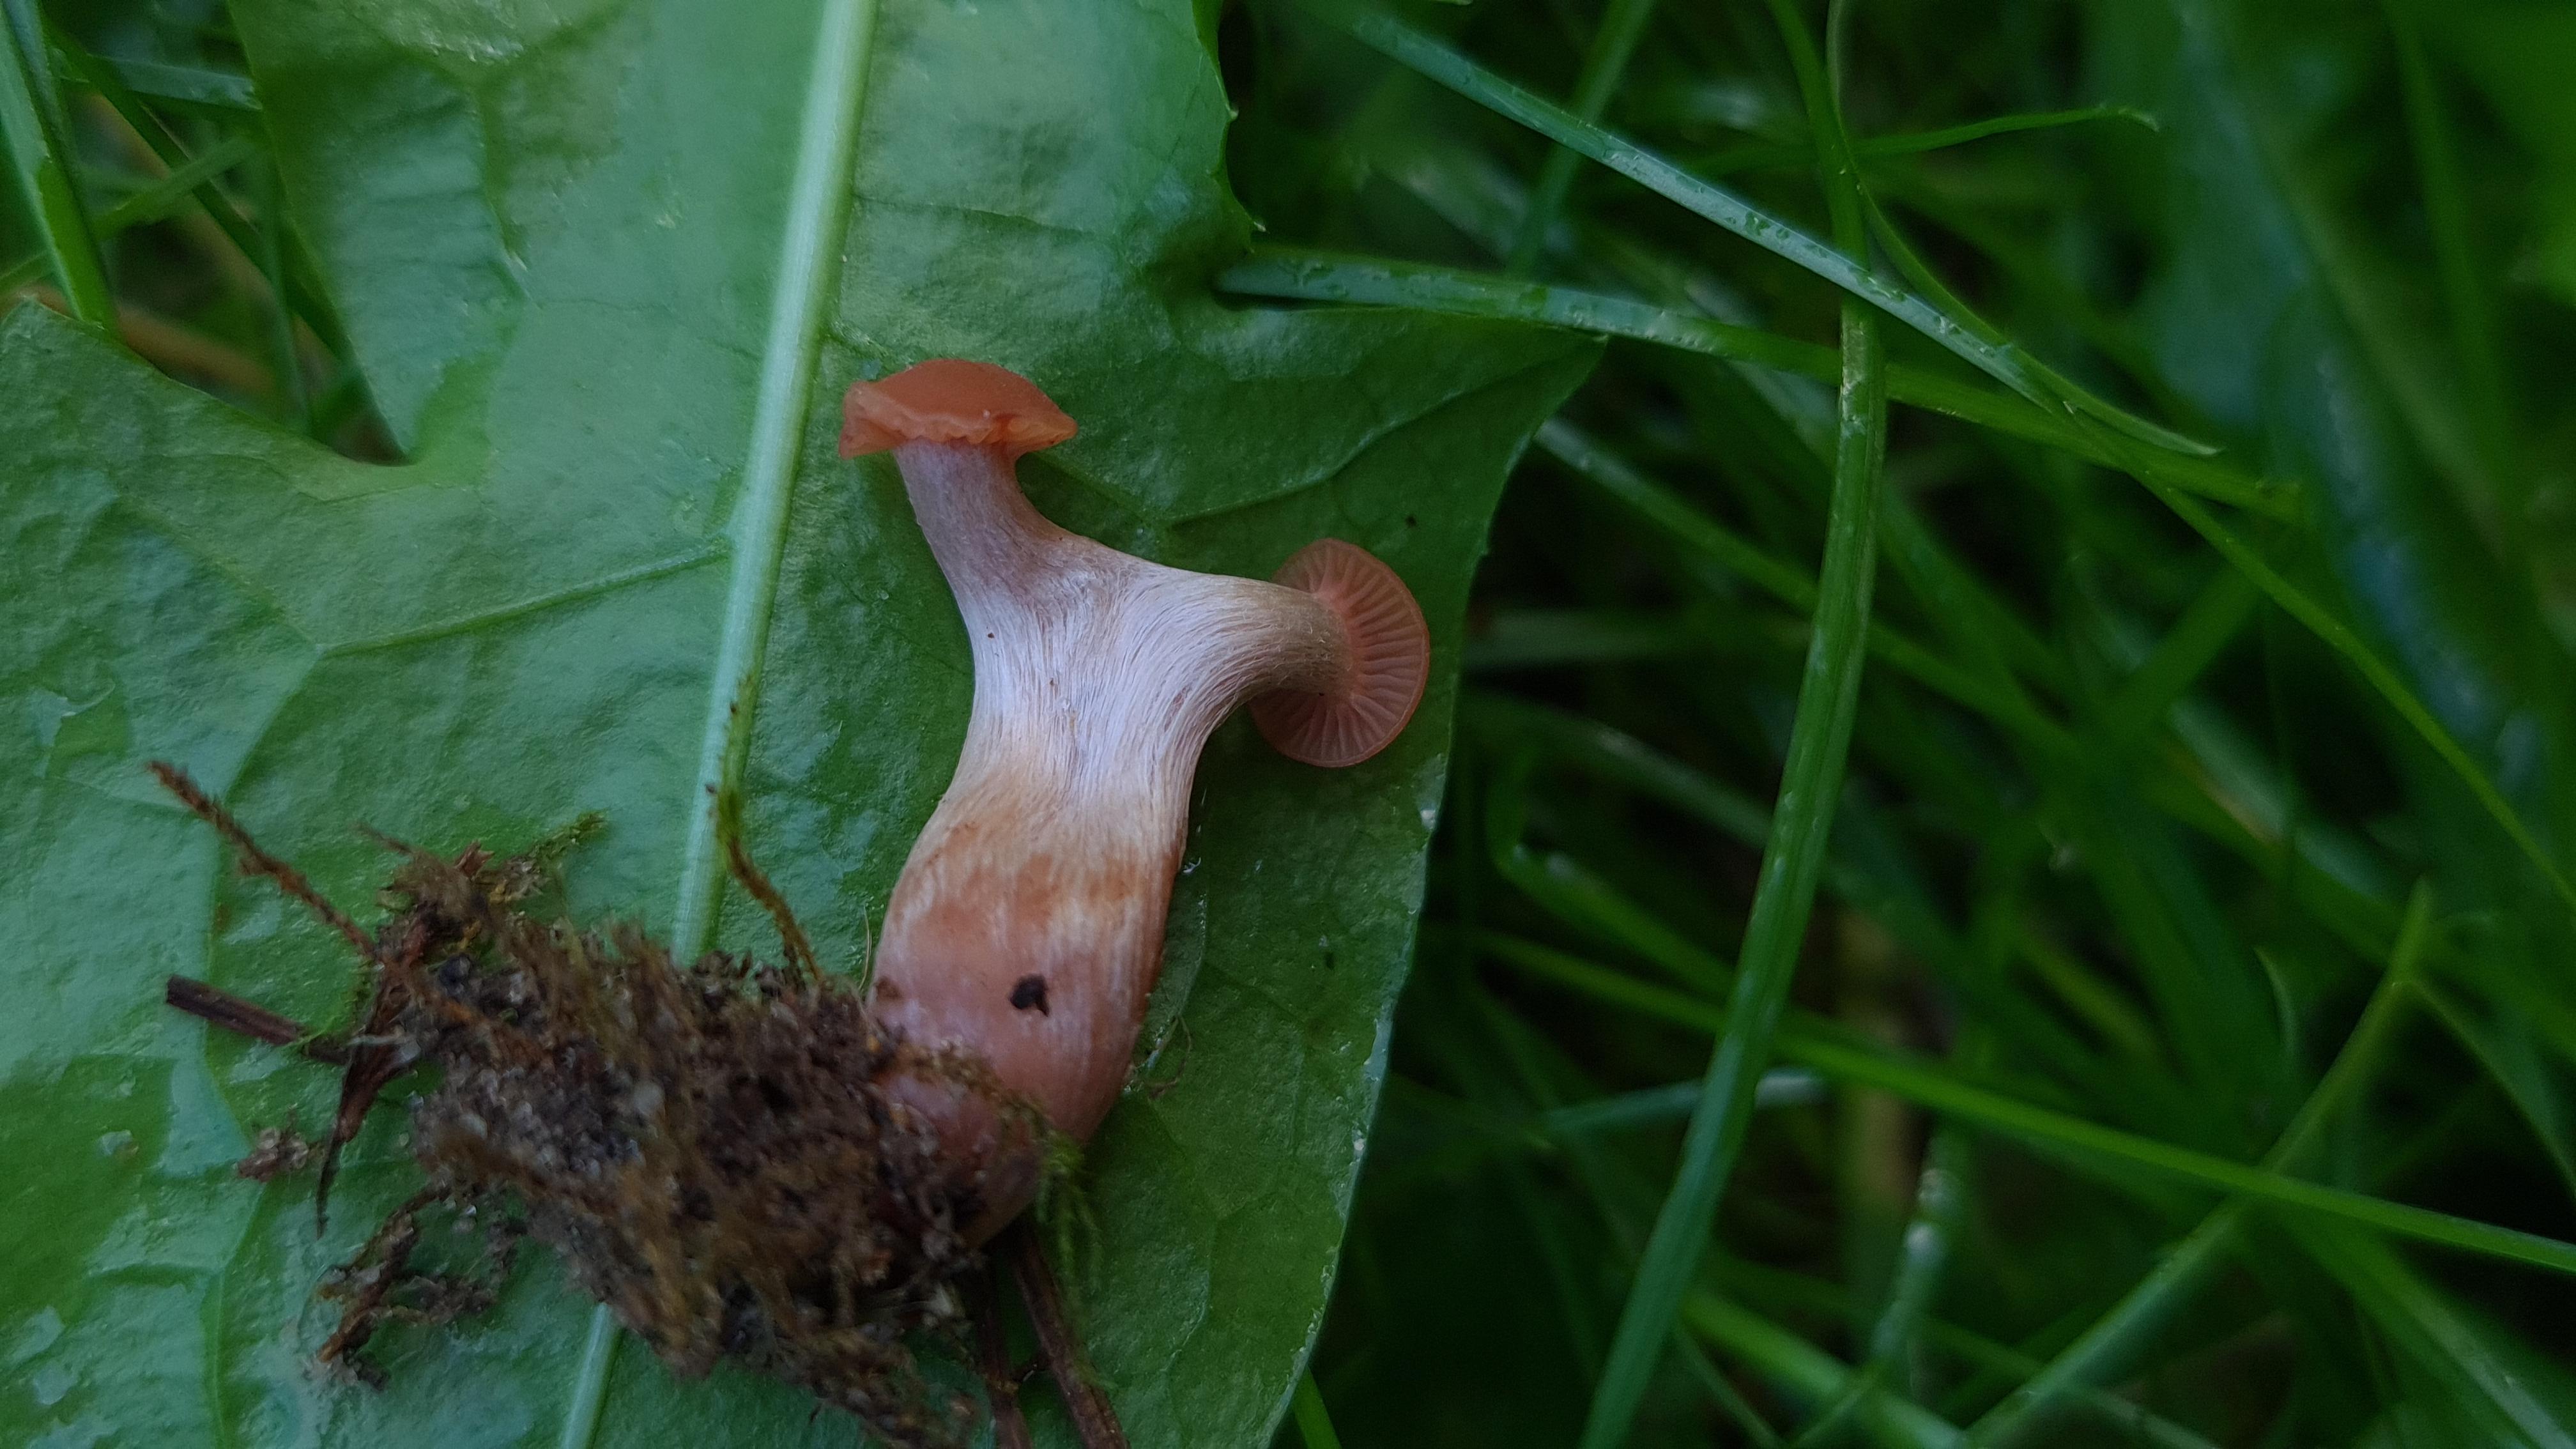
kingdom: Fungi
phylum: Basidiomycota
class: Agaricomycetes
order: Agaricales
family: Hydnangiaceae
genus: Laccaria
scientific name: Laccaria laccata
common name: rød ametysthat
